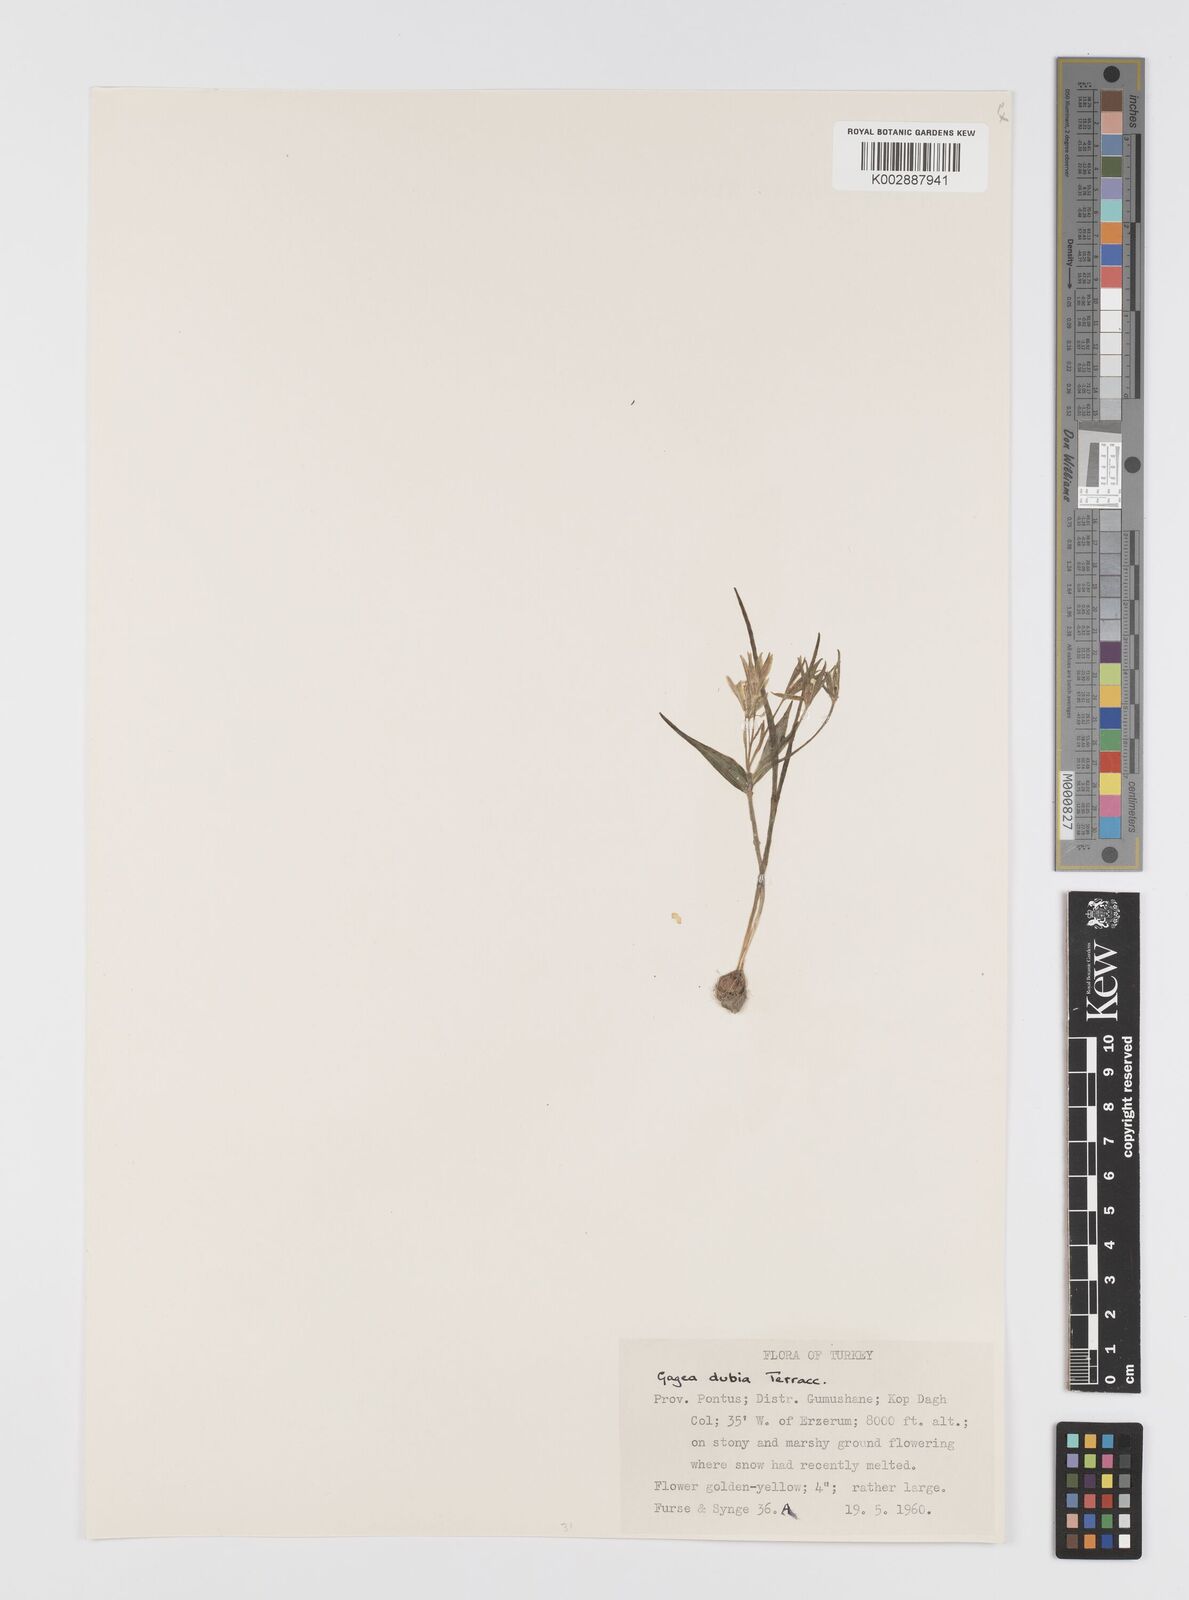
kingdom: Plantae
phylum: Tracheophyta
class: Liliopsida
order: Liliales
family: Liliaceae
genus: Gagea
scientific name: Gagea dubia
